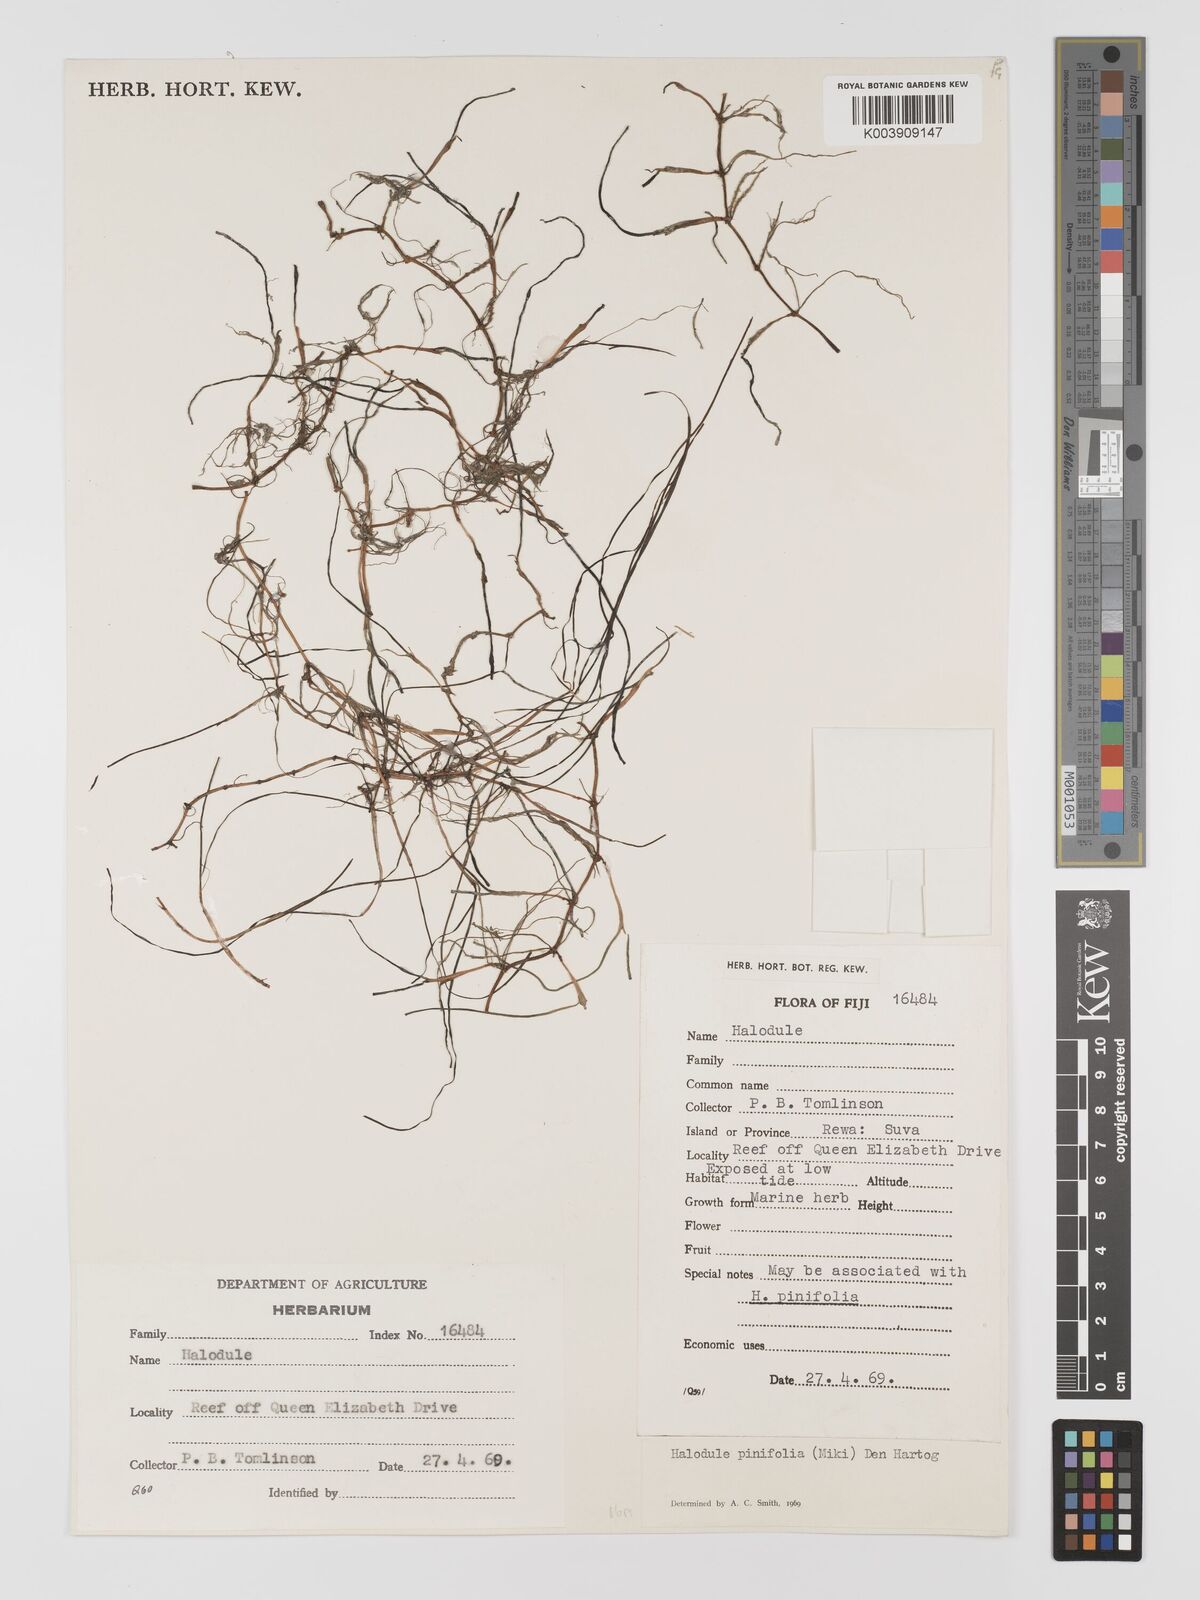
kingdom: Plantae
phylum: Tracheophyta
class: Liliopsida
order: Alismatales
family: Cymodoceaceae
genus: Halodule
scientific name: Halodule pinifolia
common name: Species code: hp
